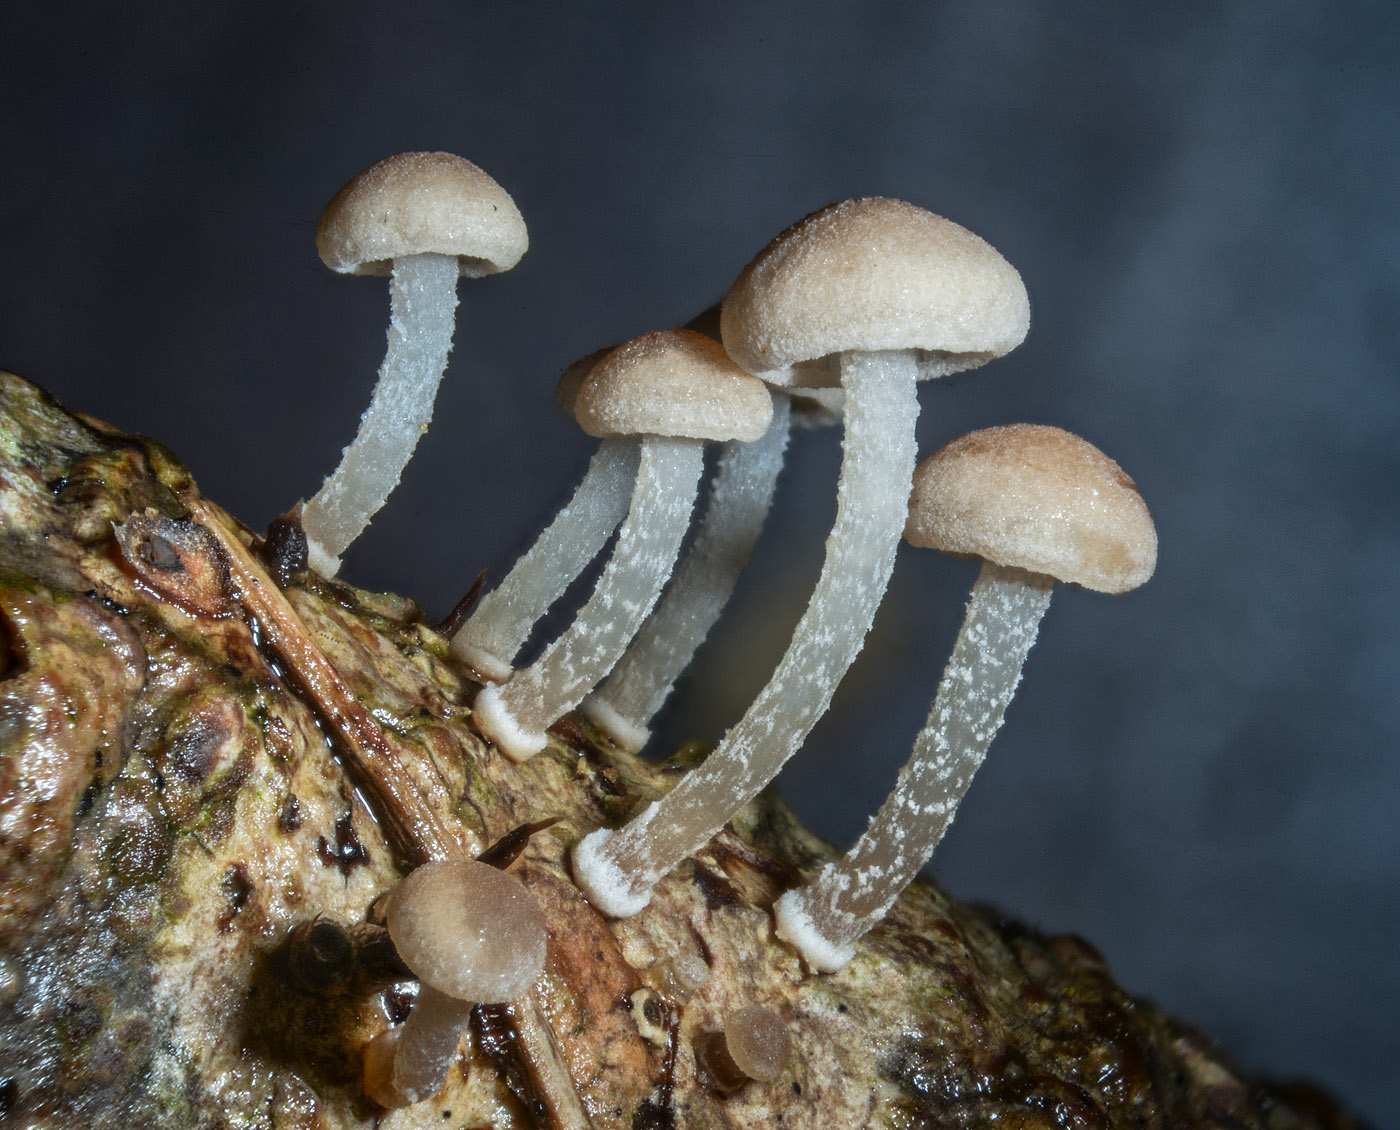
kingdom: Fungi
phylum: Basidiomycota
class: Agaricomycetes
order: Agaricales
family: Omphalotaceae
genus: Collybiopsis
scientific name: Collybiopsis ramealis
